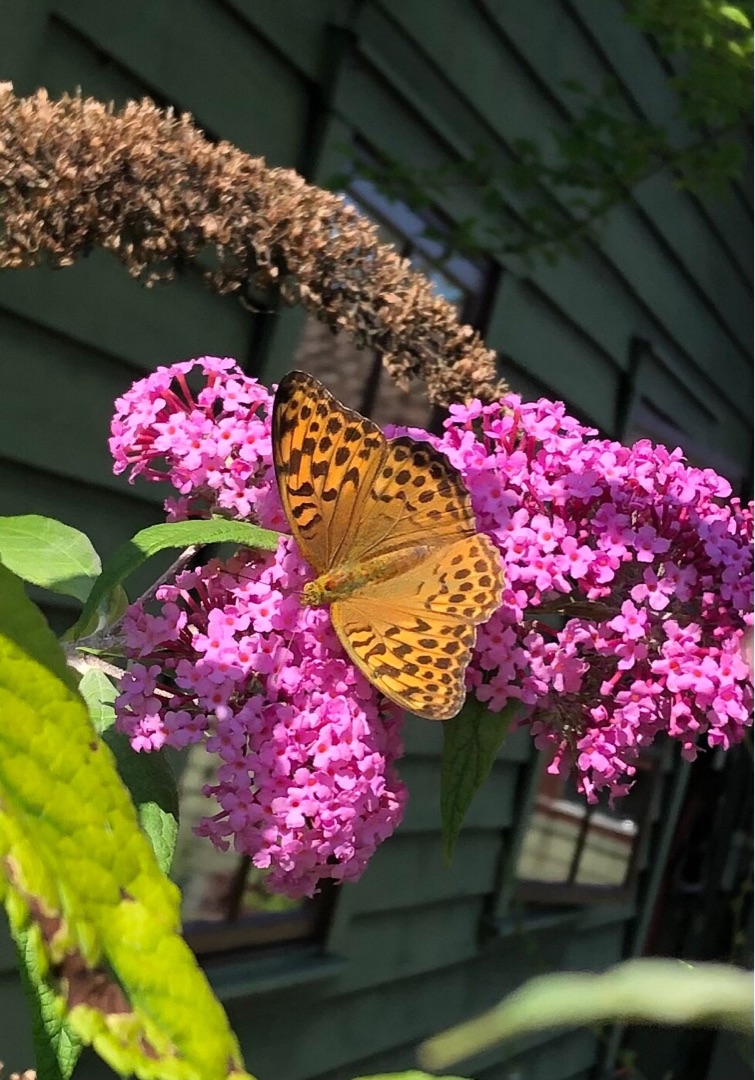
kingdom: Animalia
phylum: Arthropoda
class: Insecta
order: Lepidoptera
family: Nymphalidae
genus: Argynnis
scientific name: Argynnis paphia
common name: Kejserkåbe
